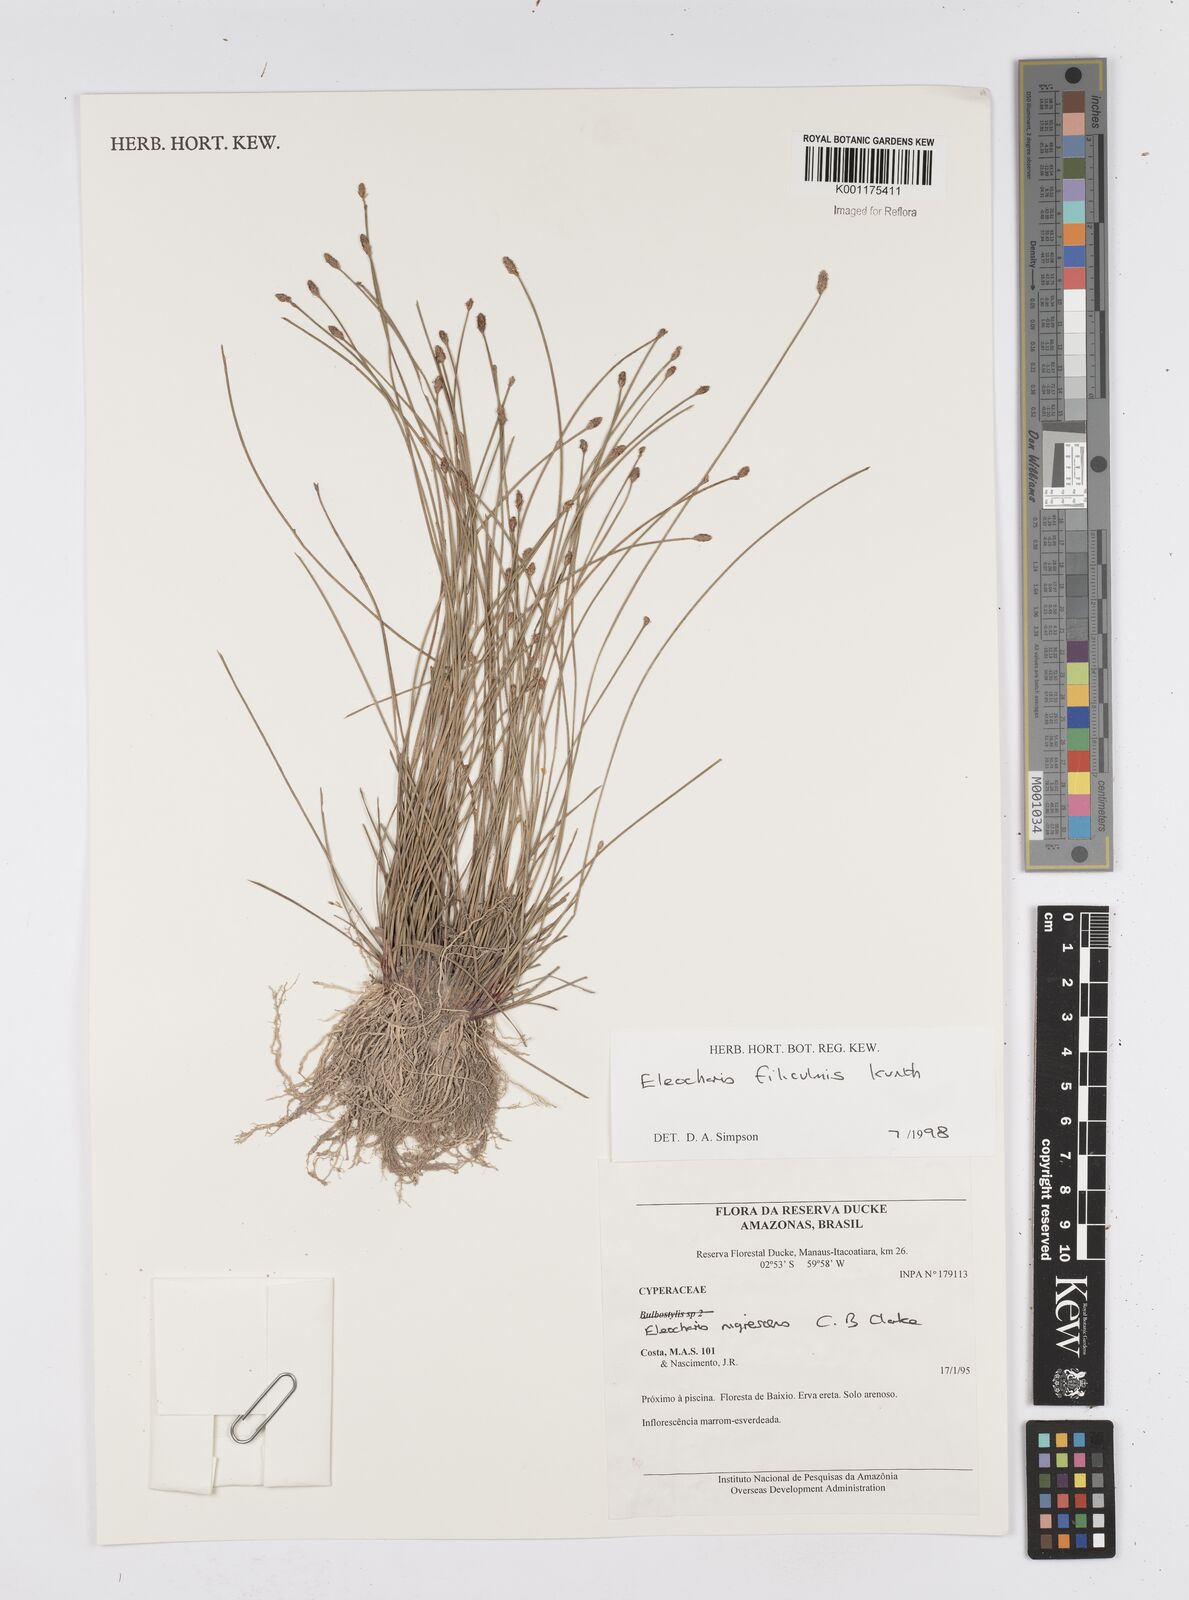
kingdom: Plantae
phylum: Tracheophyta
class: Liliopsida
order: Poales
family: Cyperaceae
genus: Eleocharis
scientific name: Eleocharis filiculmis
